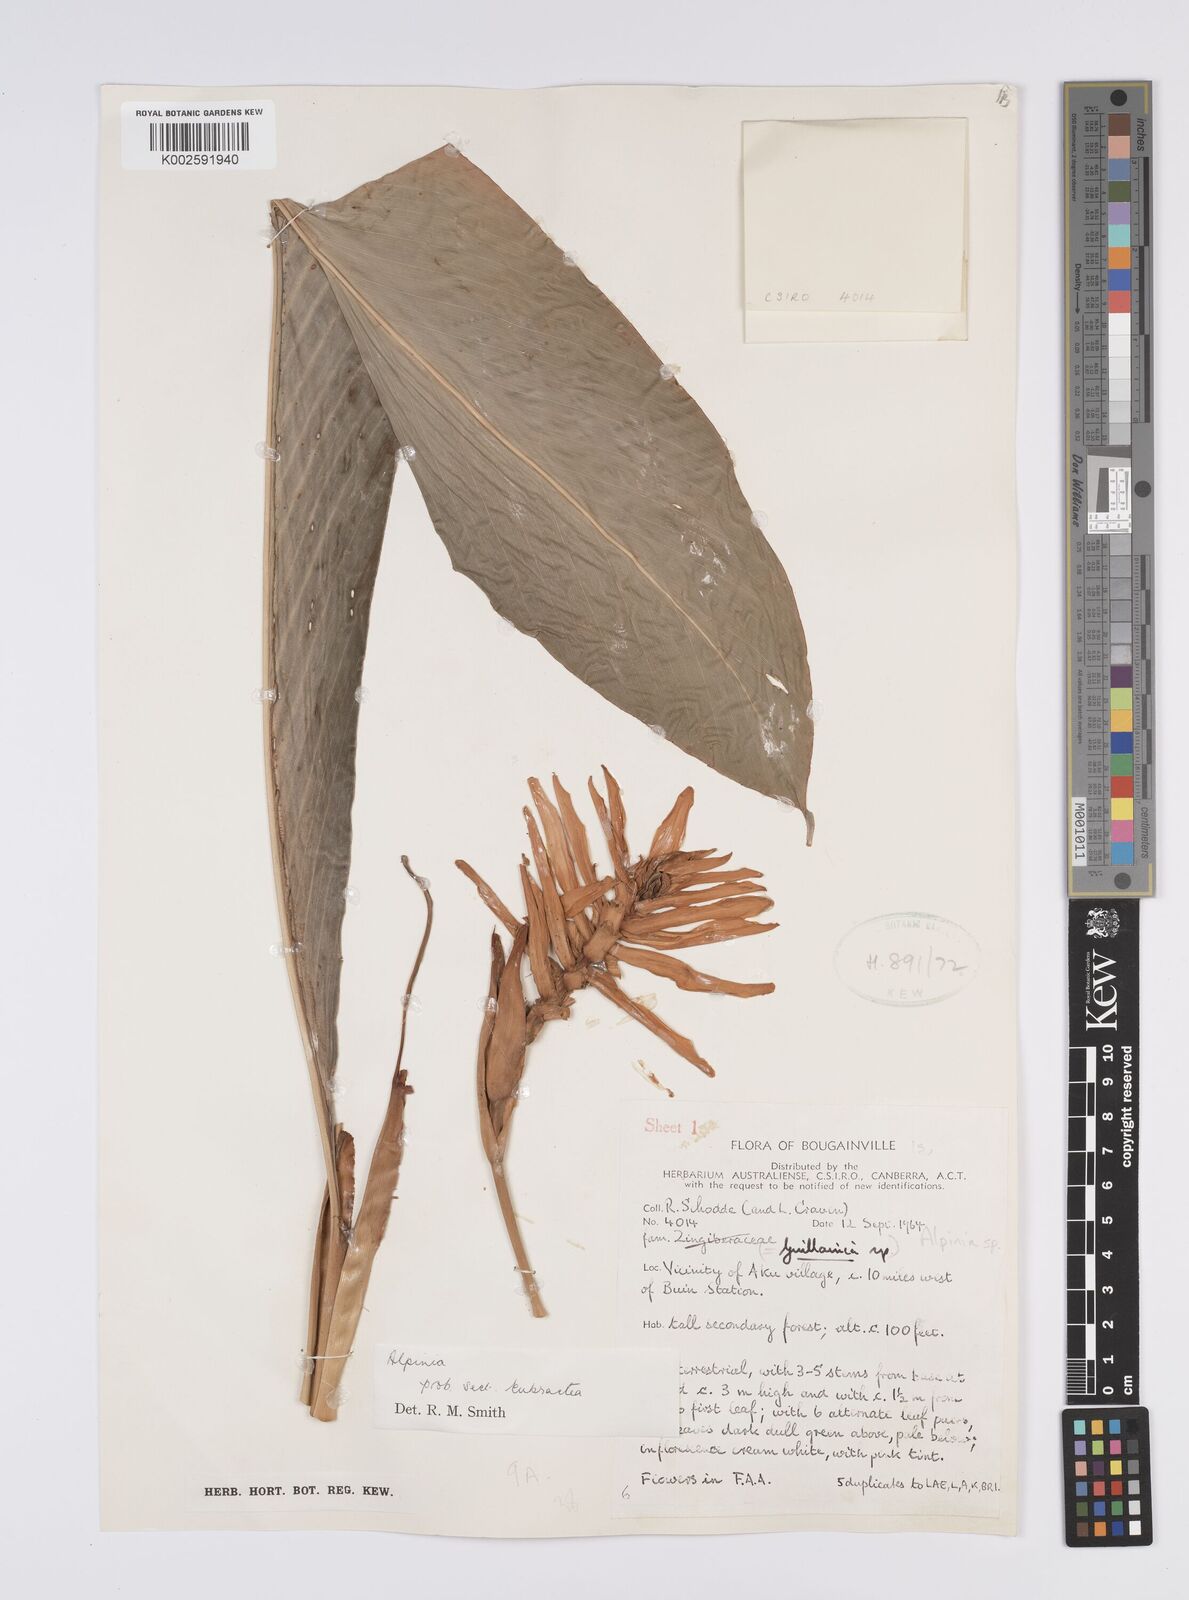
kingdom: Plantae
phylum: Tracheophyta
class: Liliopsida
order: Zingiberales
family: Zingiberaceae
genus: Alpinia
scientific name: Alpinia
